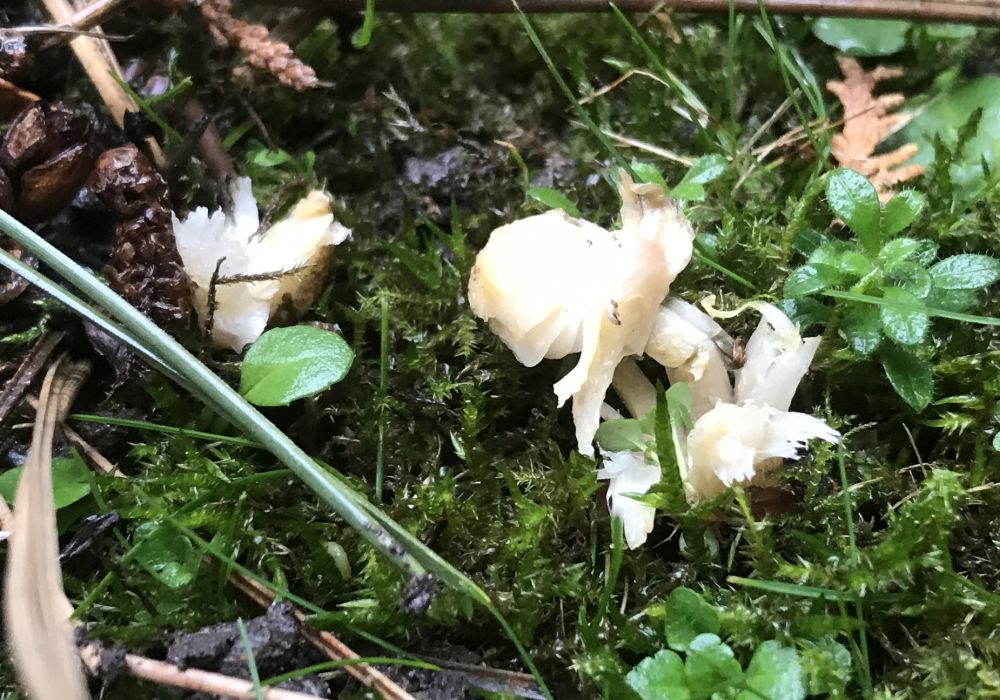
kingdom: Fungi
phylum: Basidiomycota
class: Agaricomycetes
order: Agaricales
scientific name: Agaricales
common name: champignonordenen
